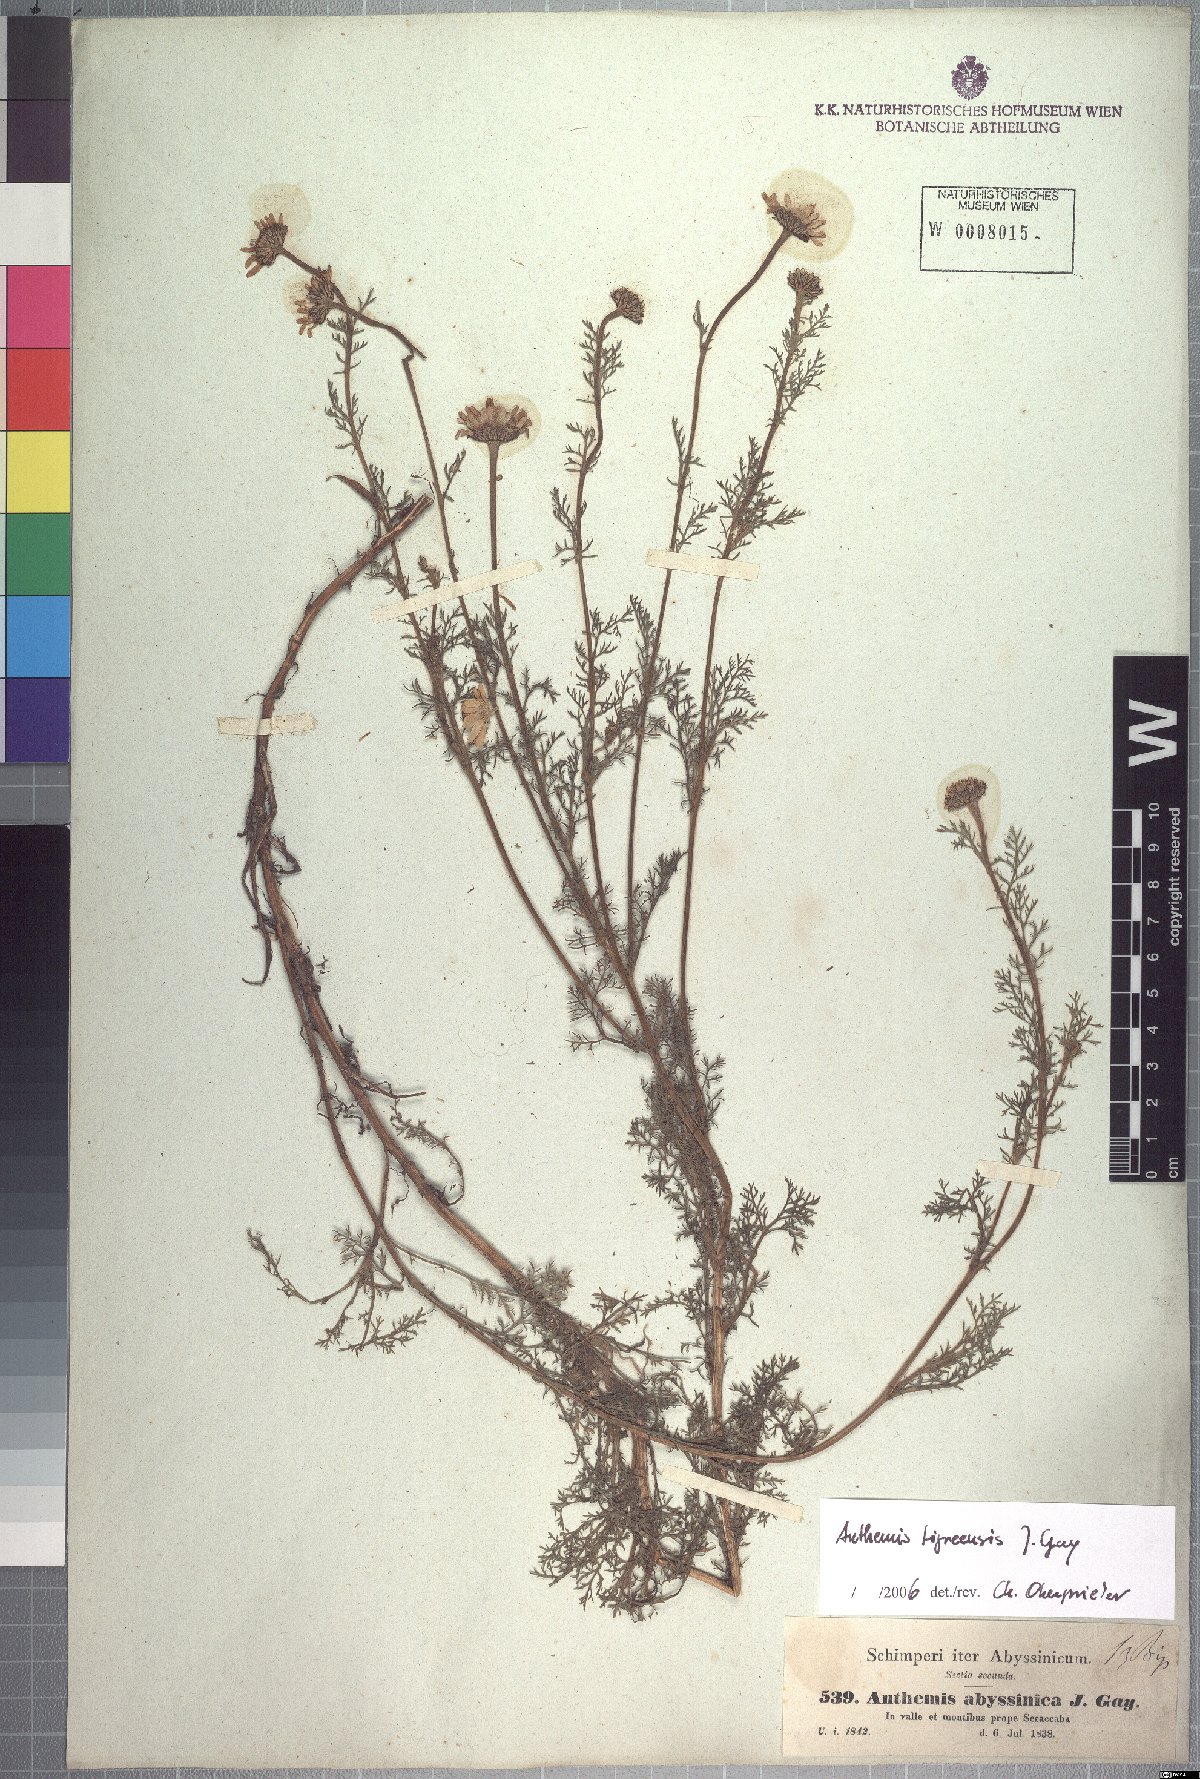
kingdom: Plantae
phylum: Tracheophyta
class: Magnoliopsida
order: Asterales
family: Asteraceae
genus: Anthemis
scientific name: Anthemis tigreensis
